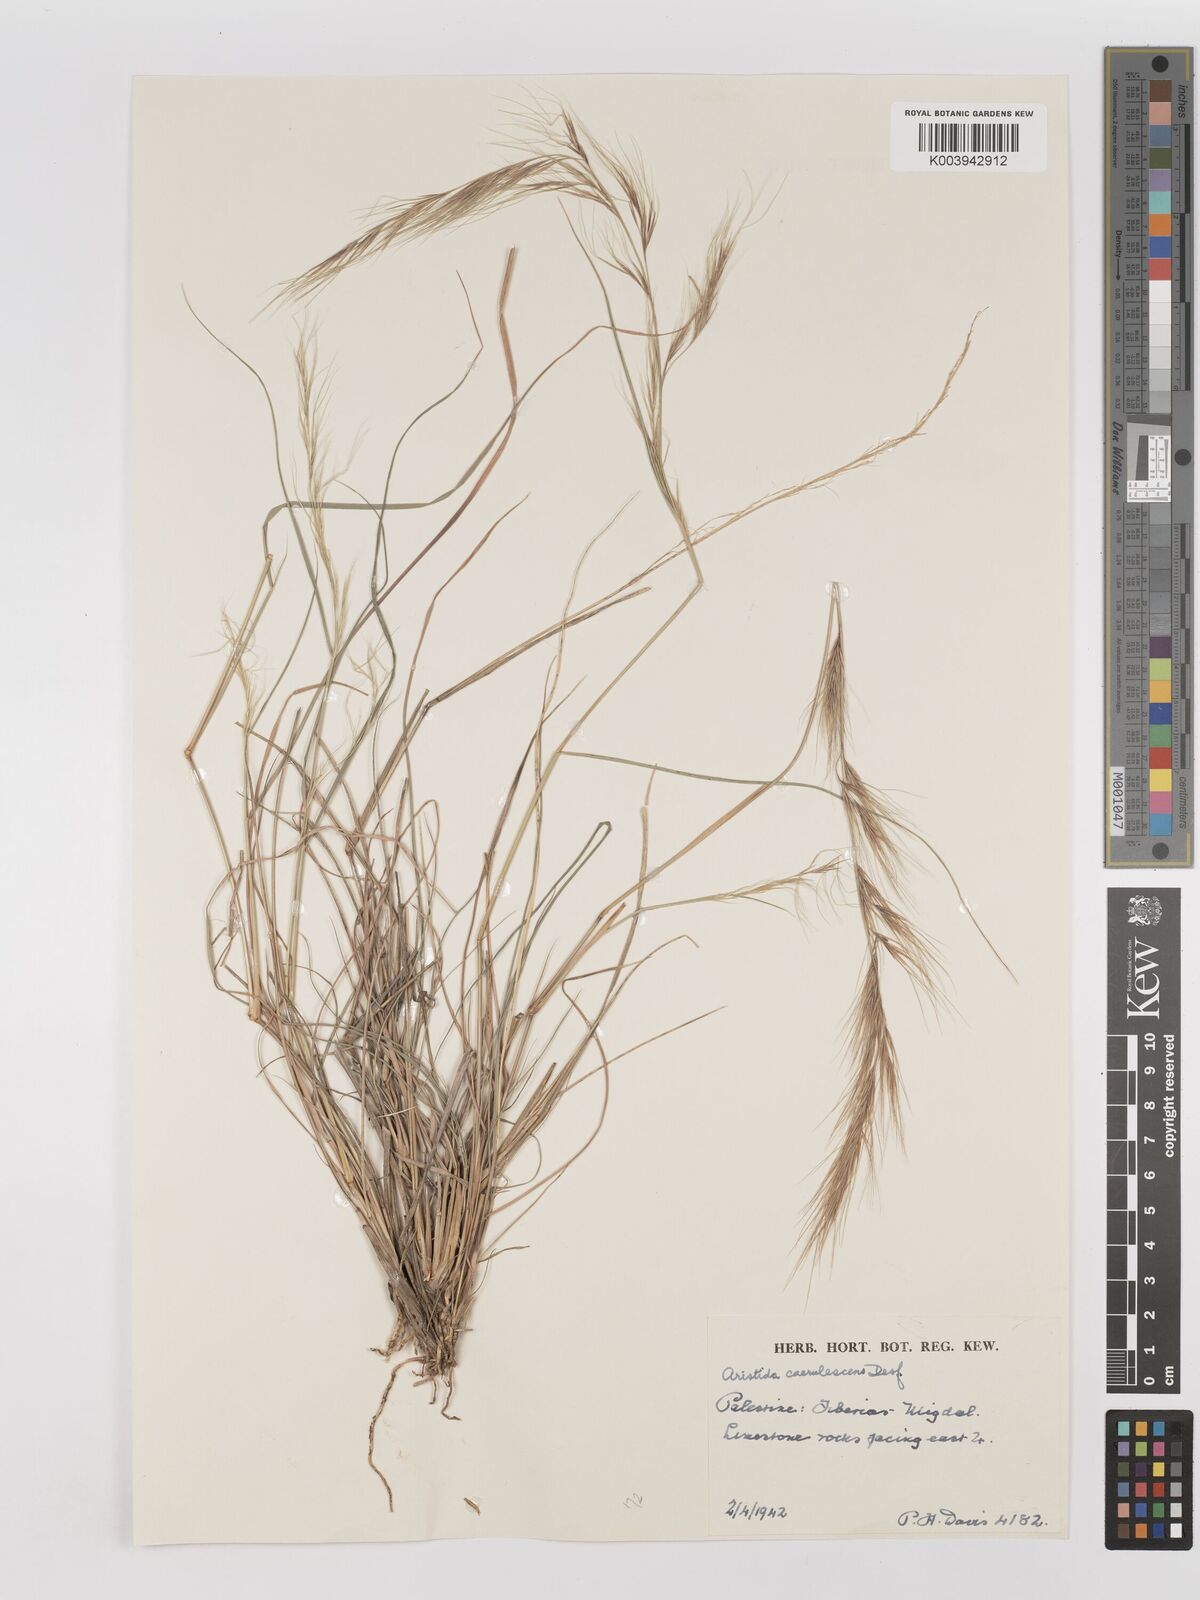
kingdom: Plantae
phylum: Tracheophyta
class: Liliopsida
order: Poales
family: Poaceae
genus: Aristida
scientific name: Aristida adscensionis
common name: Sixweeks threeawn
